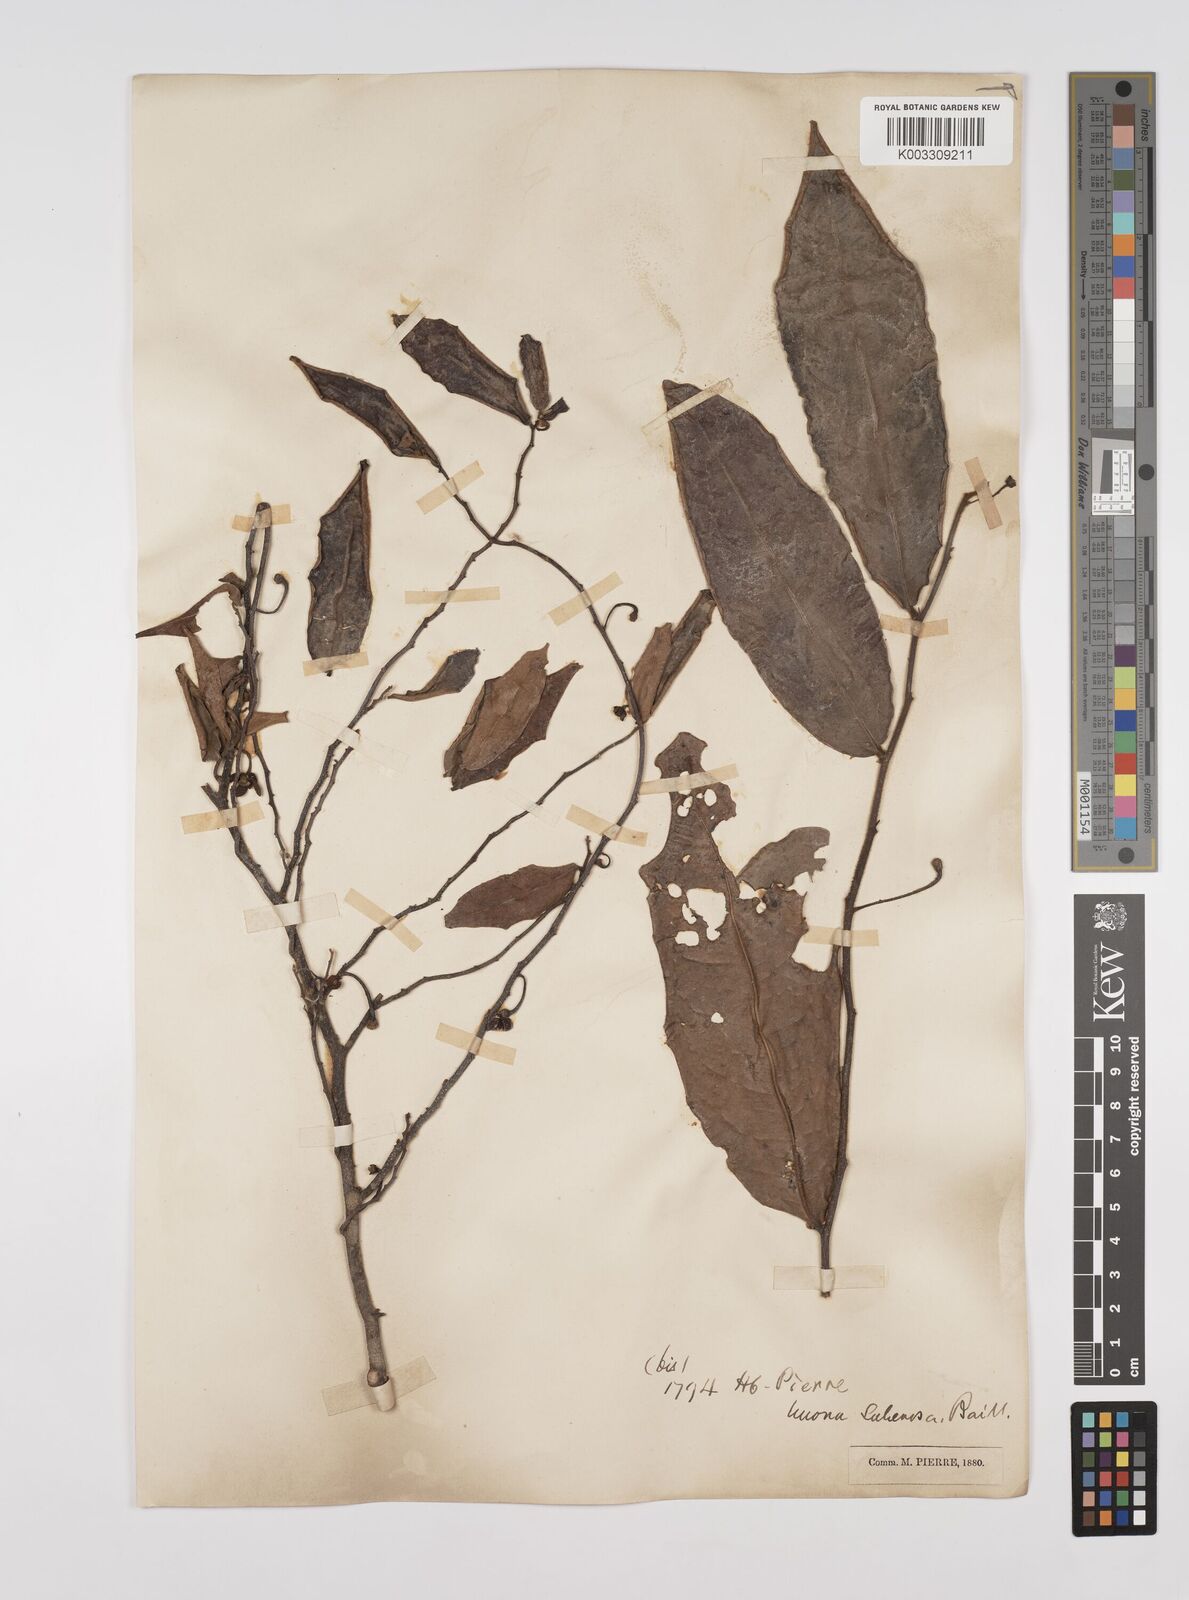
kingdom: Plantae
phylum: Tracheophyta
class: Magnoliopsida
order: Magnoliales
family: Annonaceae
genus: Polyalthia
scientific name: Polyalthia evecta
